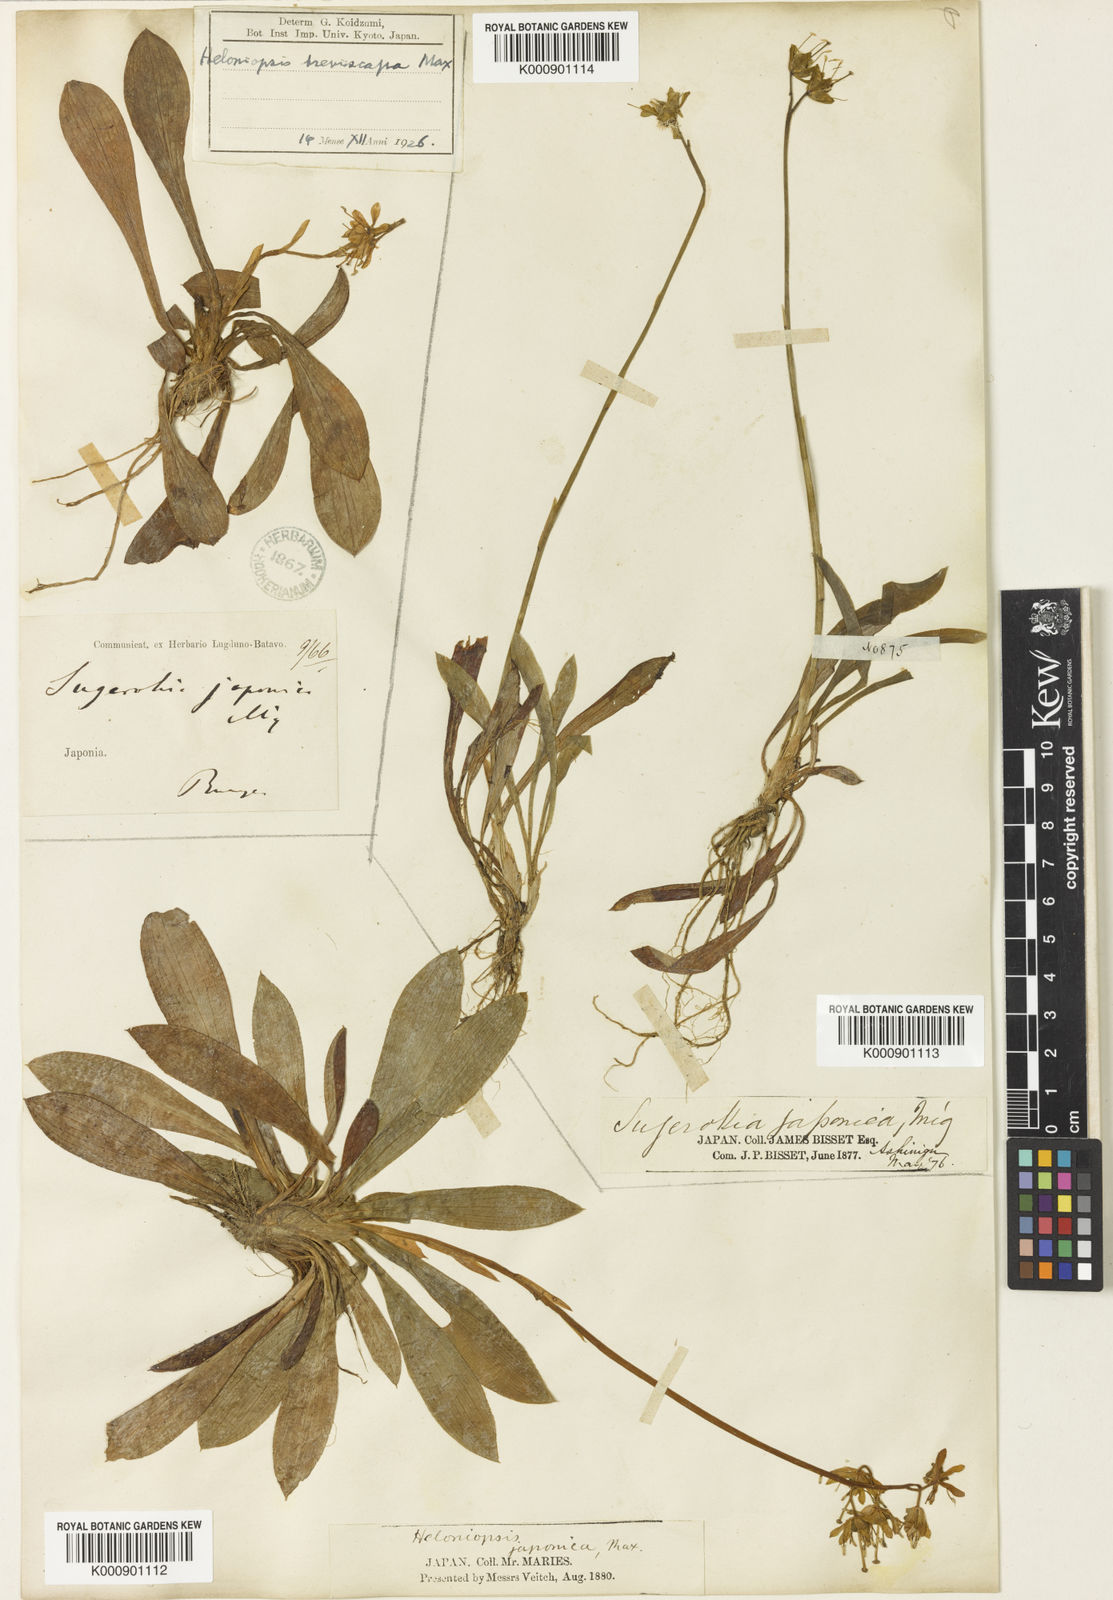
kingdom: Plantae
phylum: Tracheophyta
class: Liliopsida
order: Liliales
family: Melanthiaceae
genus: Helonias
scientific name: Helonias
